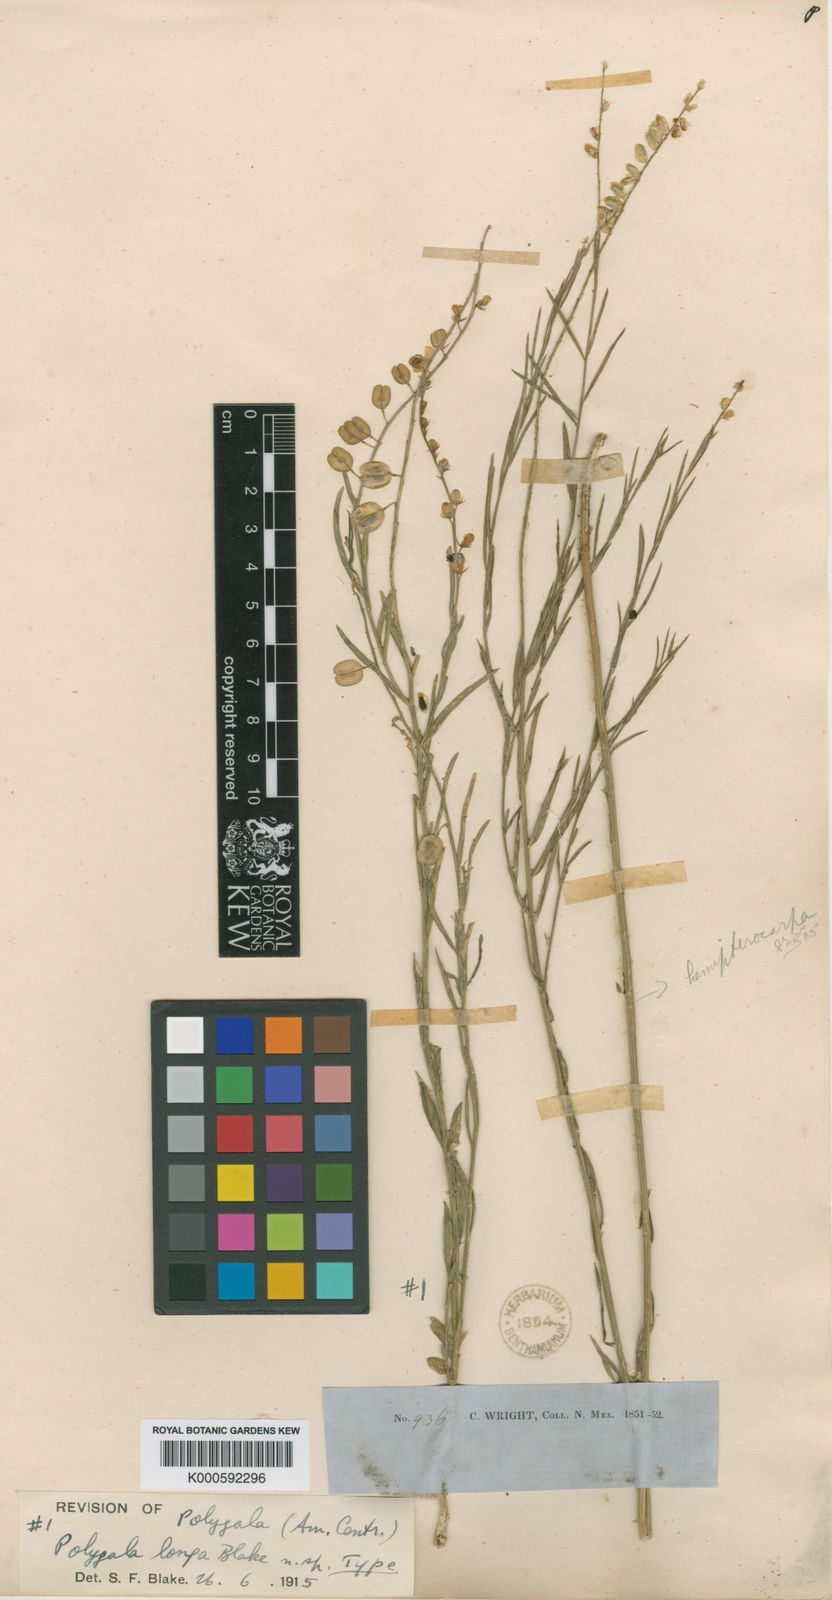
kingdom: Plantae
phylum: Tracheophyta
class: Magnoliopsida
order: Fabales
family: Polygalaceae
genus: Hebecarpa
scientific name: Hebecarpa buxifolia
